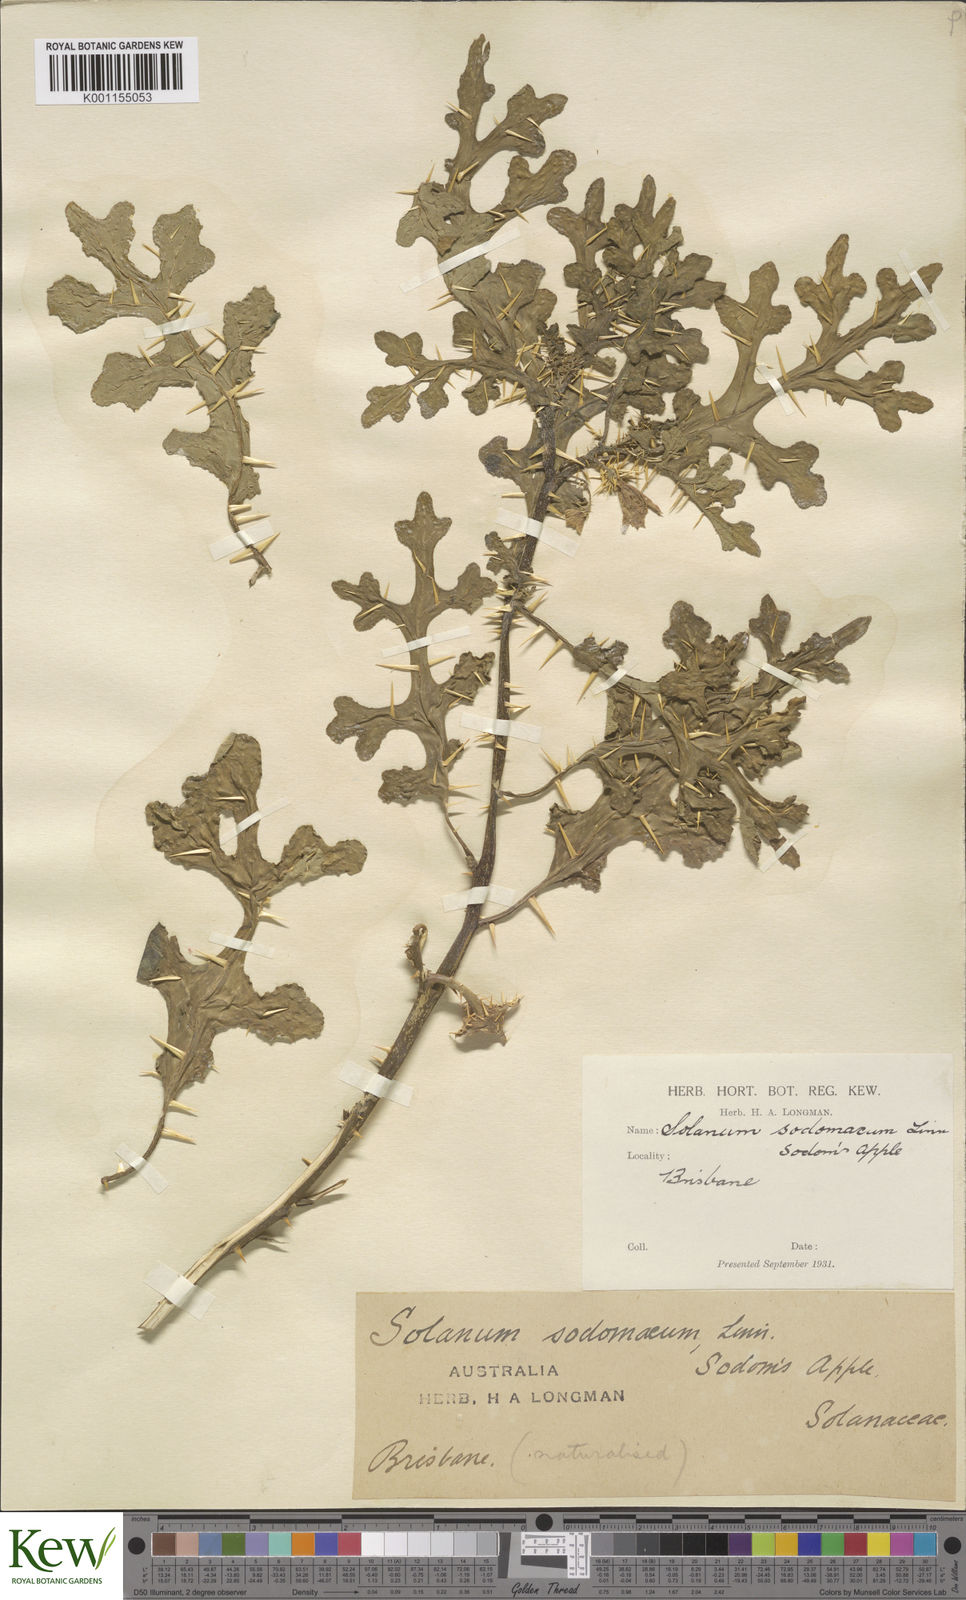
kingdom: Plantae
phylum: Tracheophyta
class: Magnoliopsida
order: Solanales
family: Solanaceae
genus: Solanum
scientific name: Solanum anguivi
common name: Forest bitterberry
